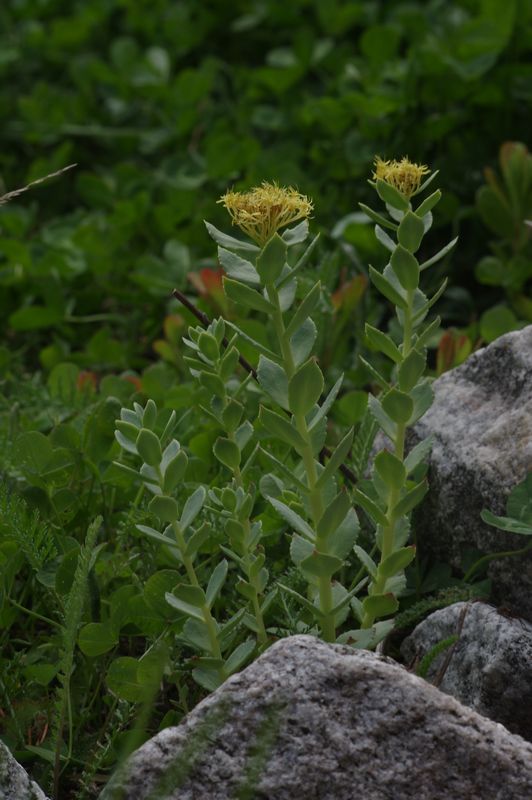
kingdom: Plantae
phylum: Tracheophyta
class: Magnoliopsida
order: Saxifragales
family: Crassulaceae
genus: Rhodiola
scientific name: Rhodiola rosea
